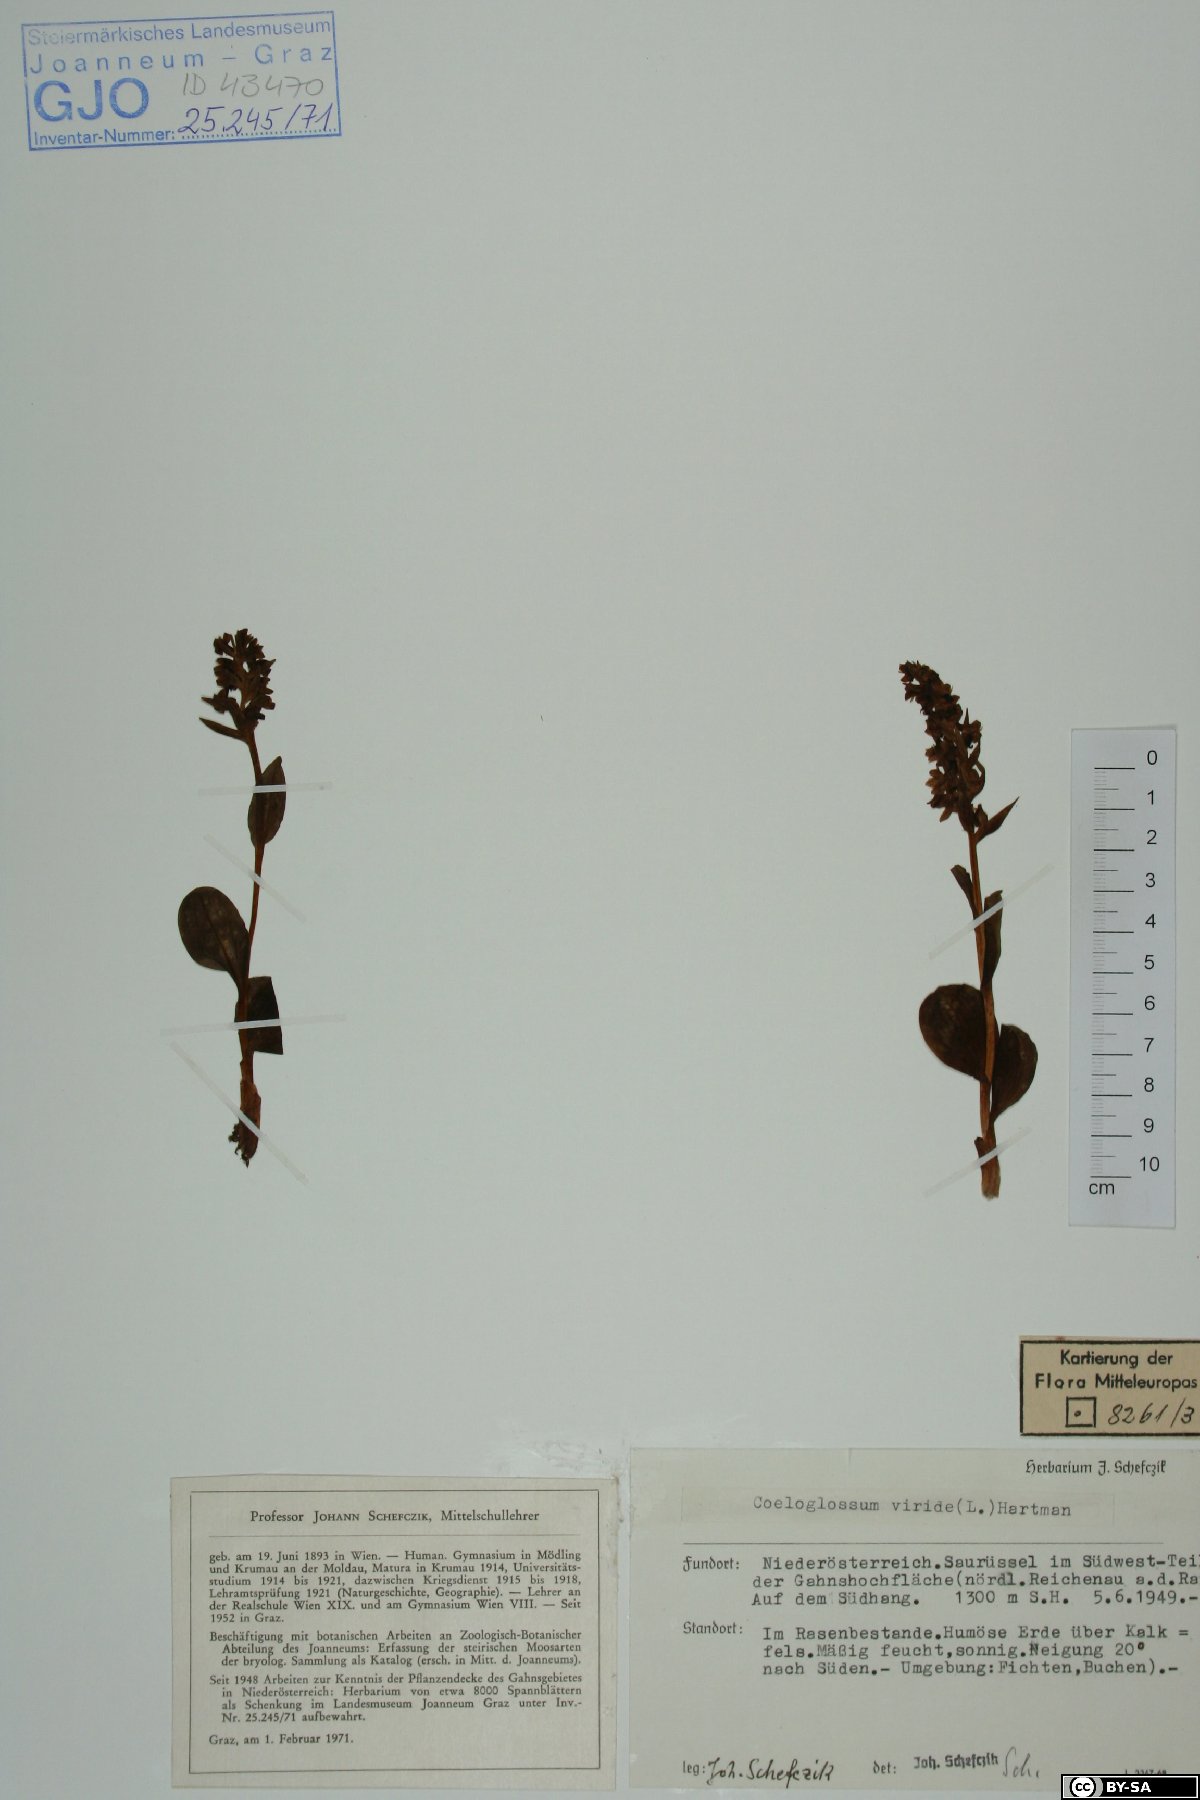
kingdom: Plantae
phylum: Tracheophyta
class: Liliopsida
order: Asparagales
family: Orchidaceae
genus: Dactylorhiza
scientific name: Dactylorhiza viridis
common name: Longbract frog orchid
